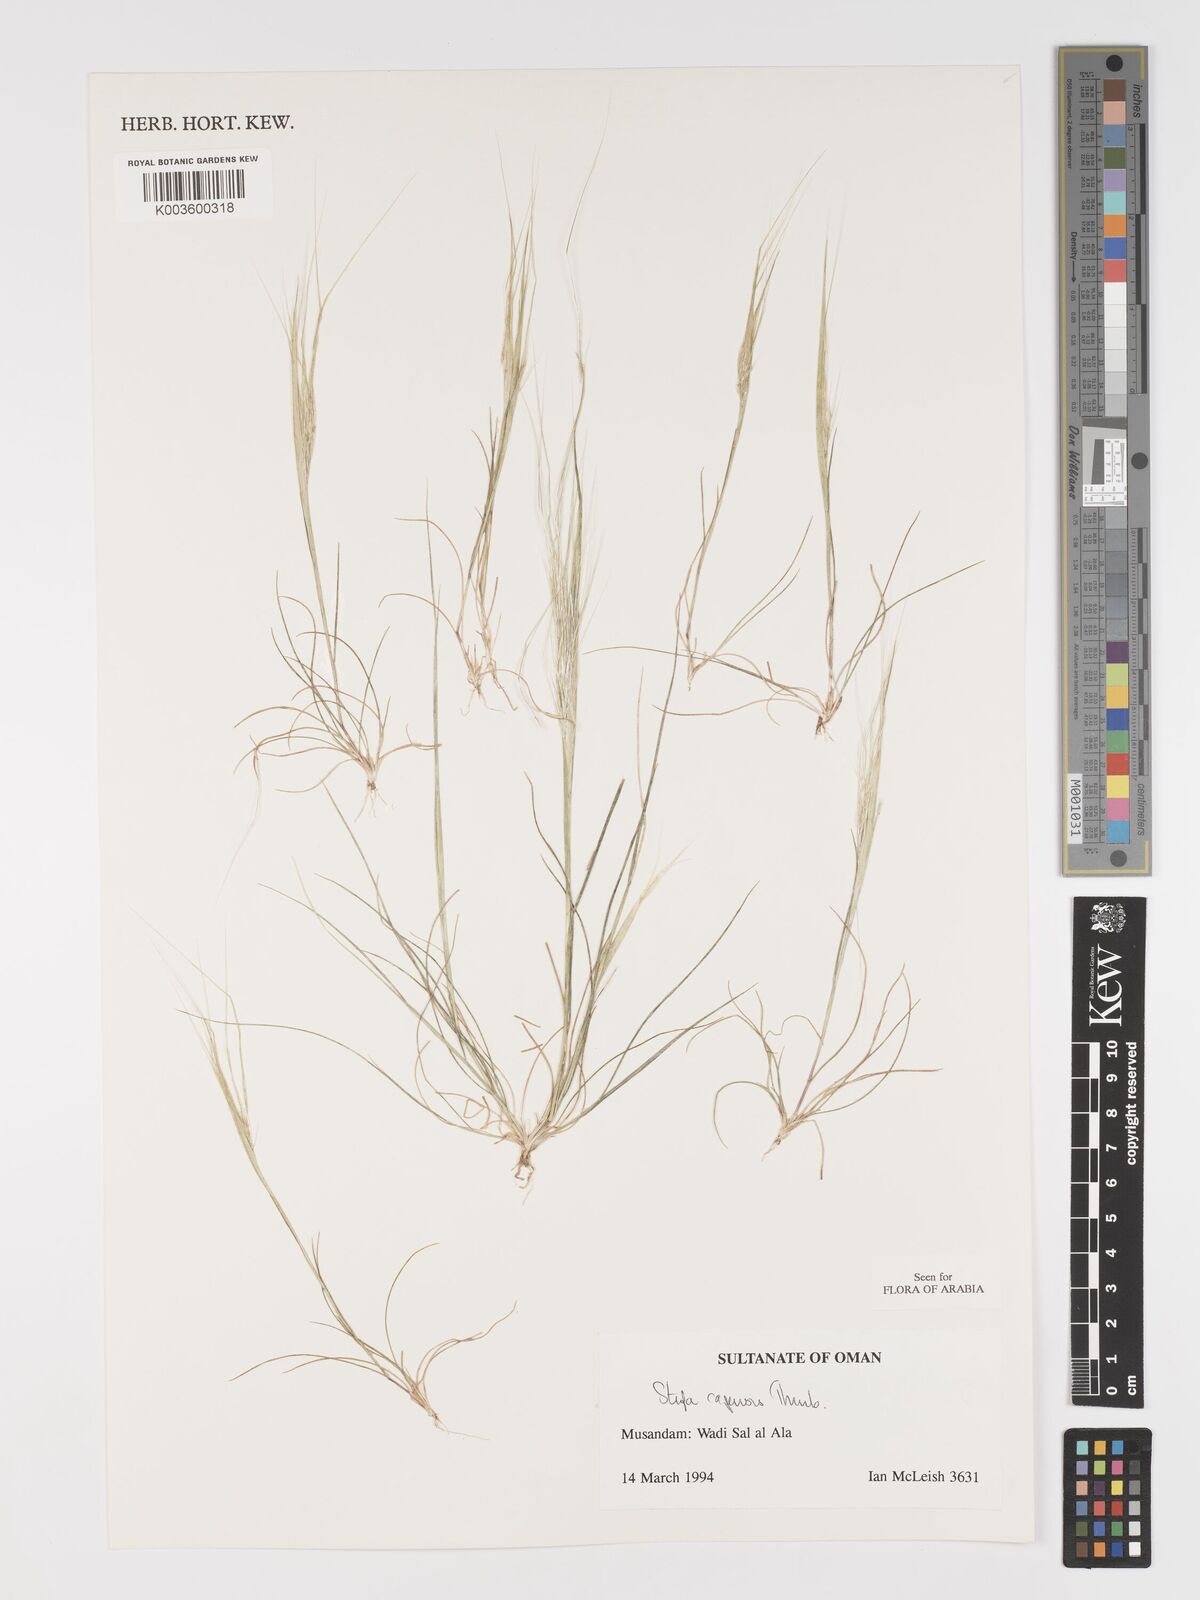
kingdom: Plantae
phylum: Tracheophyta
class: Liliopsida
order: Poales
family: Poaceae
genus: Stipellula
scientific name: Stipellula capensis
